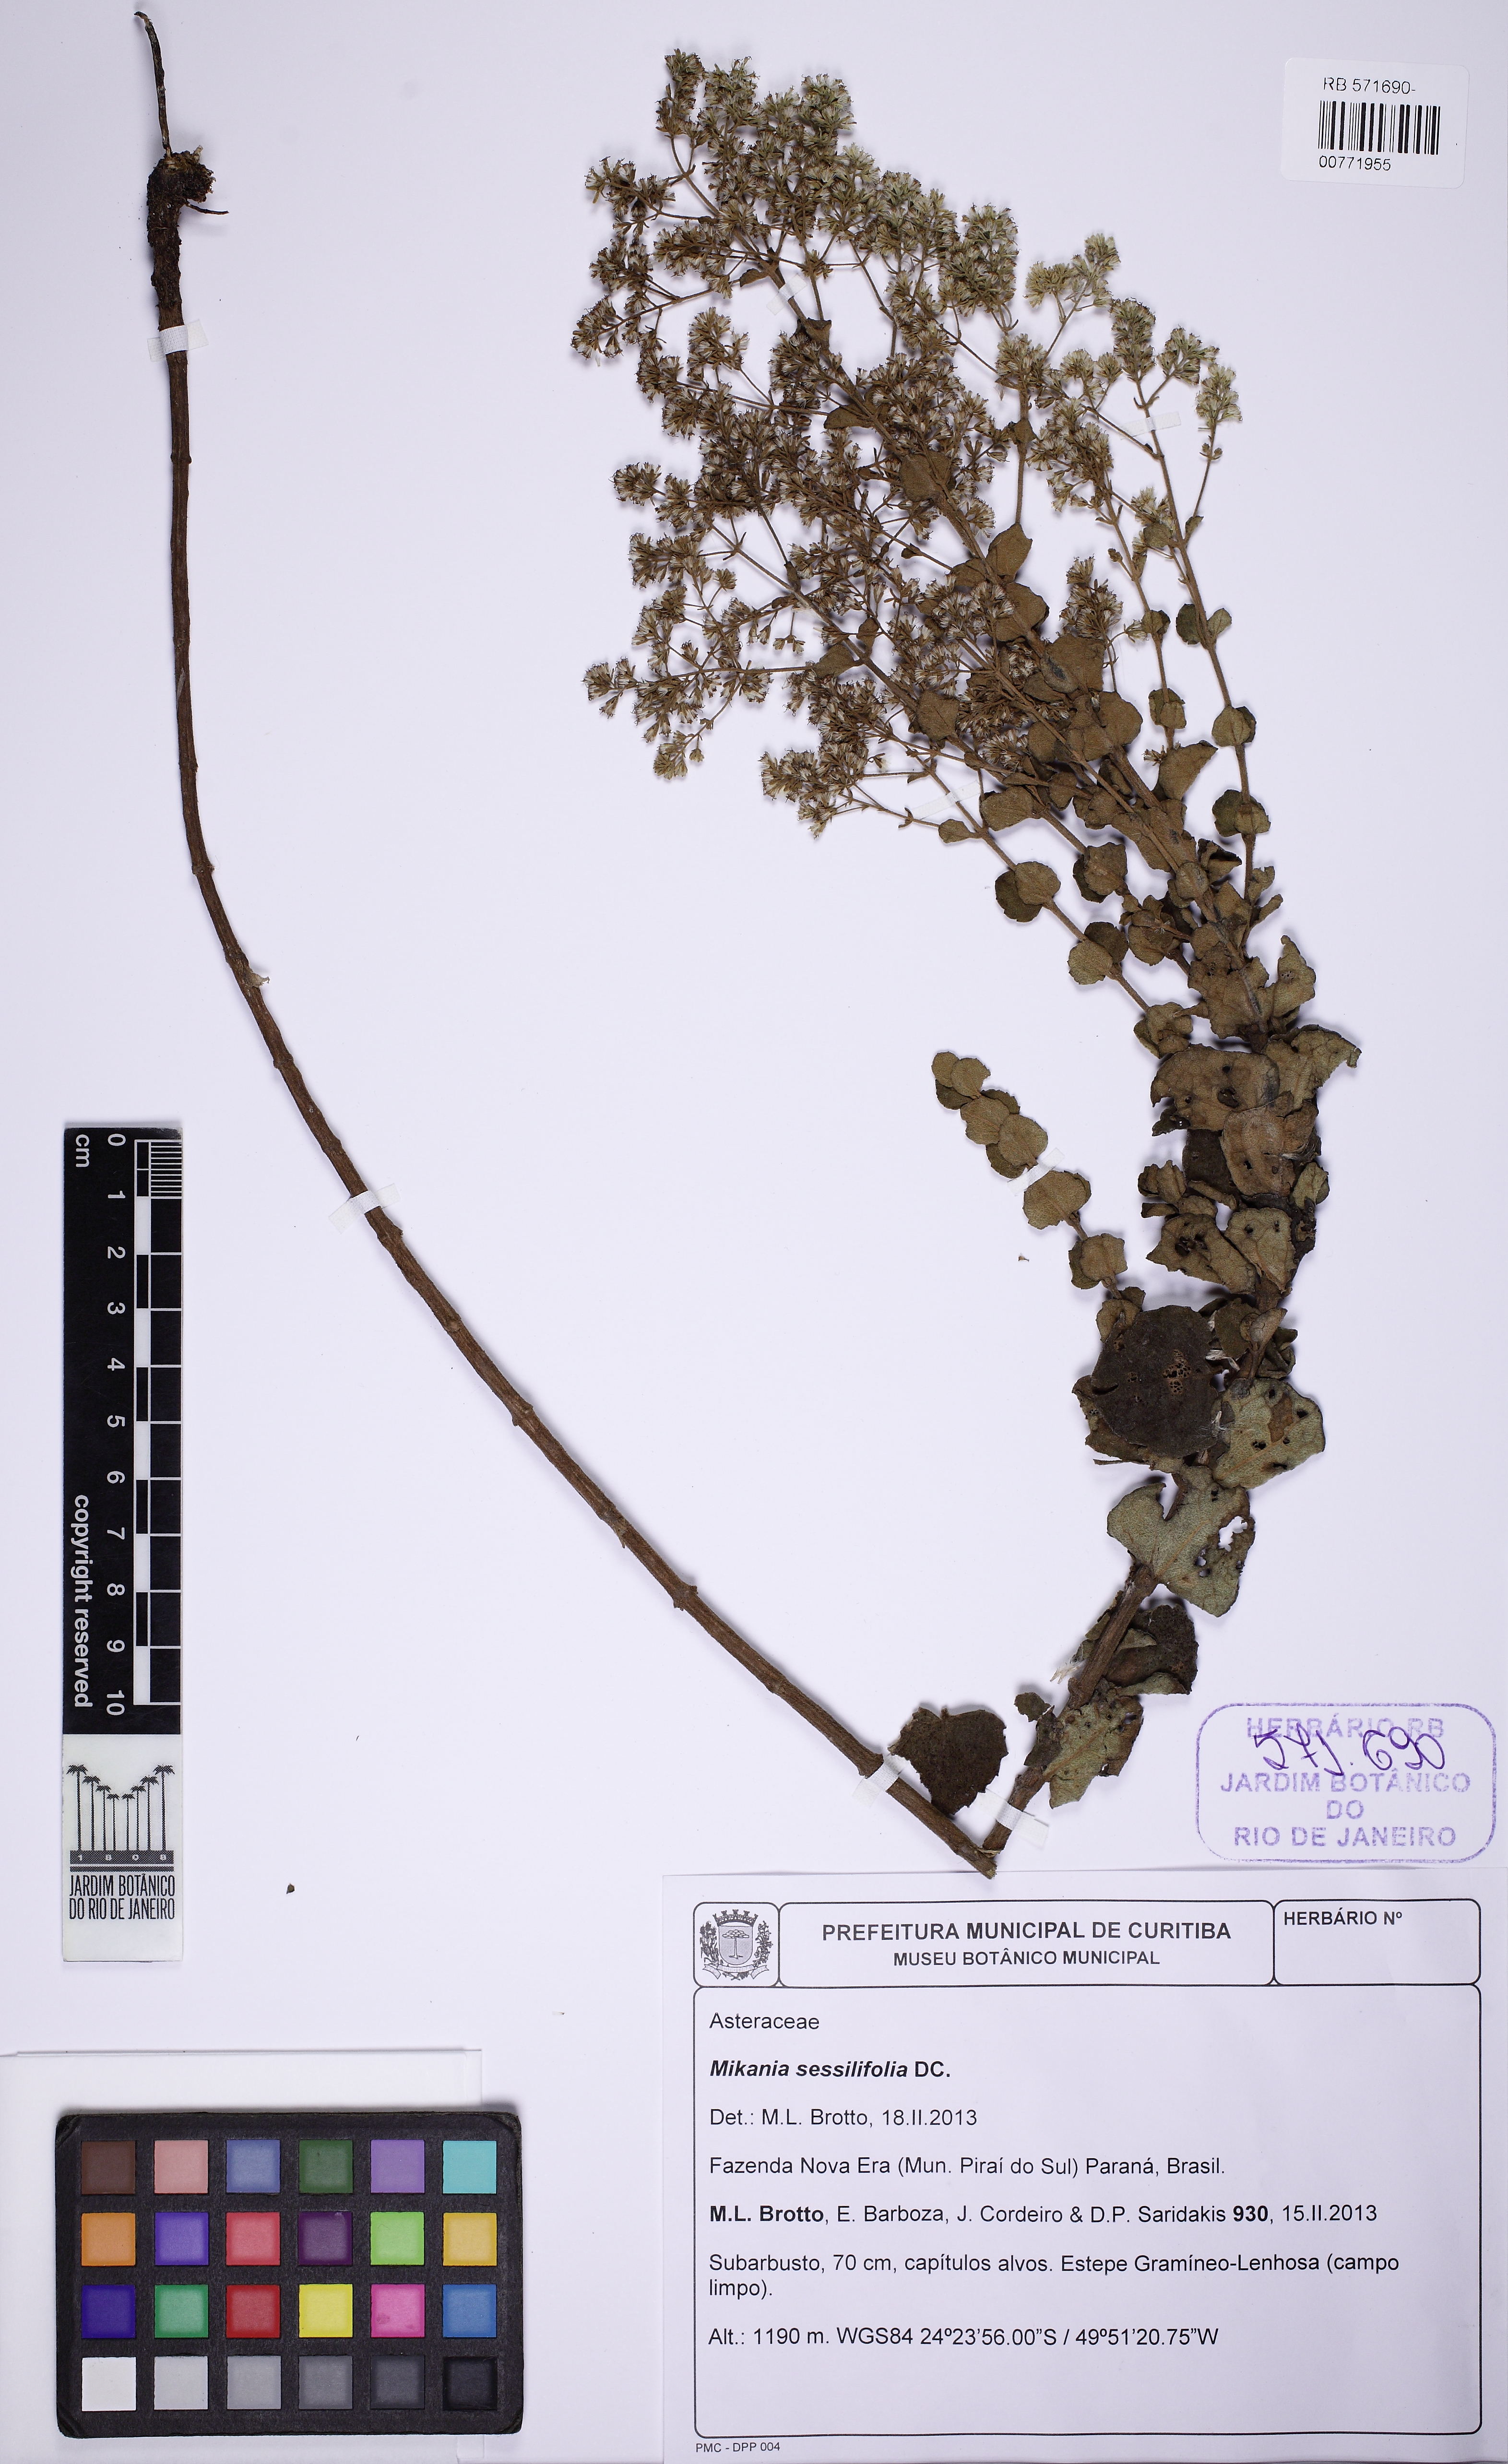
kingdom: Plantae
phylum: Tracheophyta
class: Magnoliopsida
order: Asterales
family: Asteraceae
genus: Mikania
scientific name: Mikania sessilifolia
